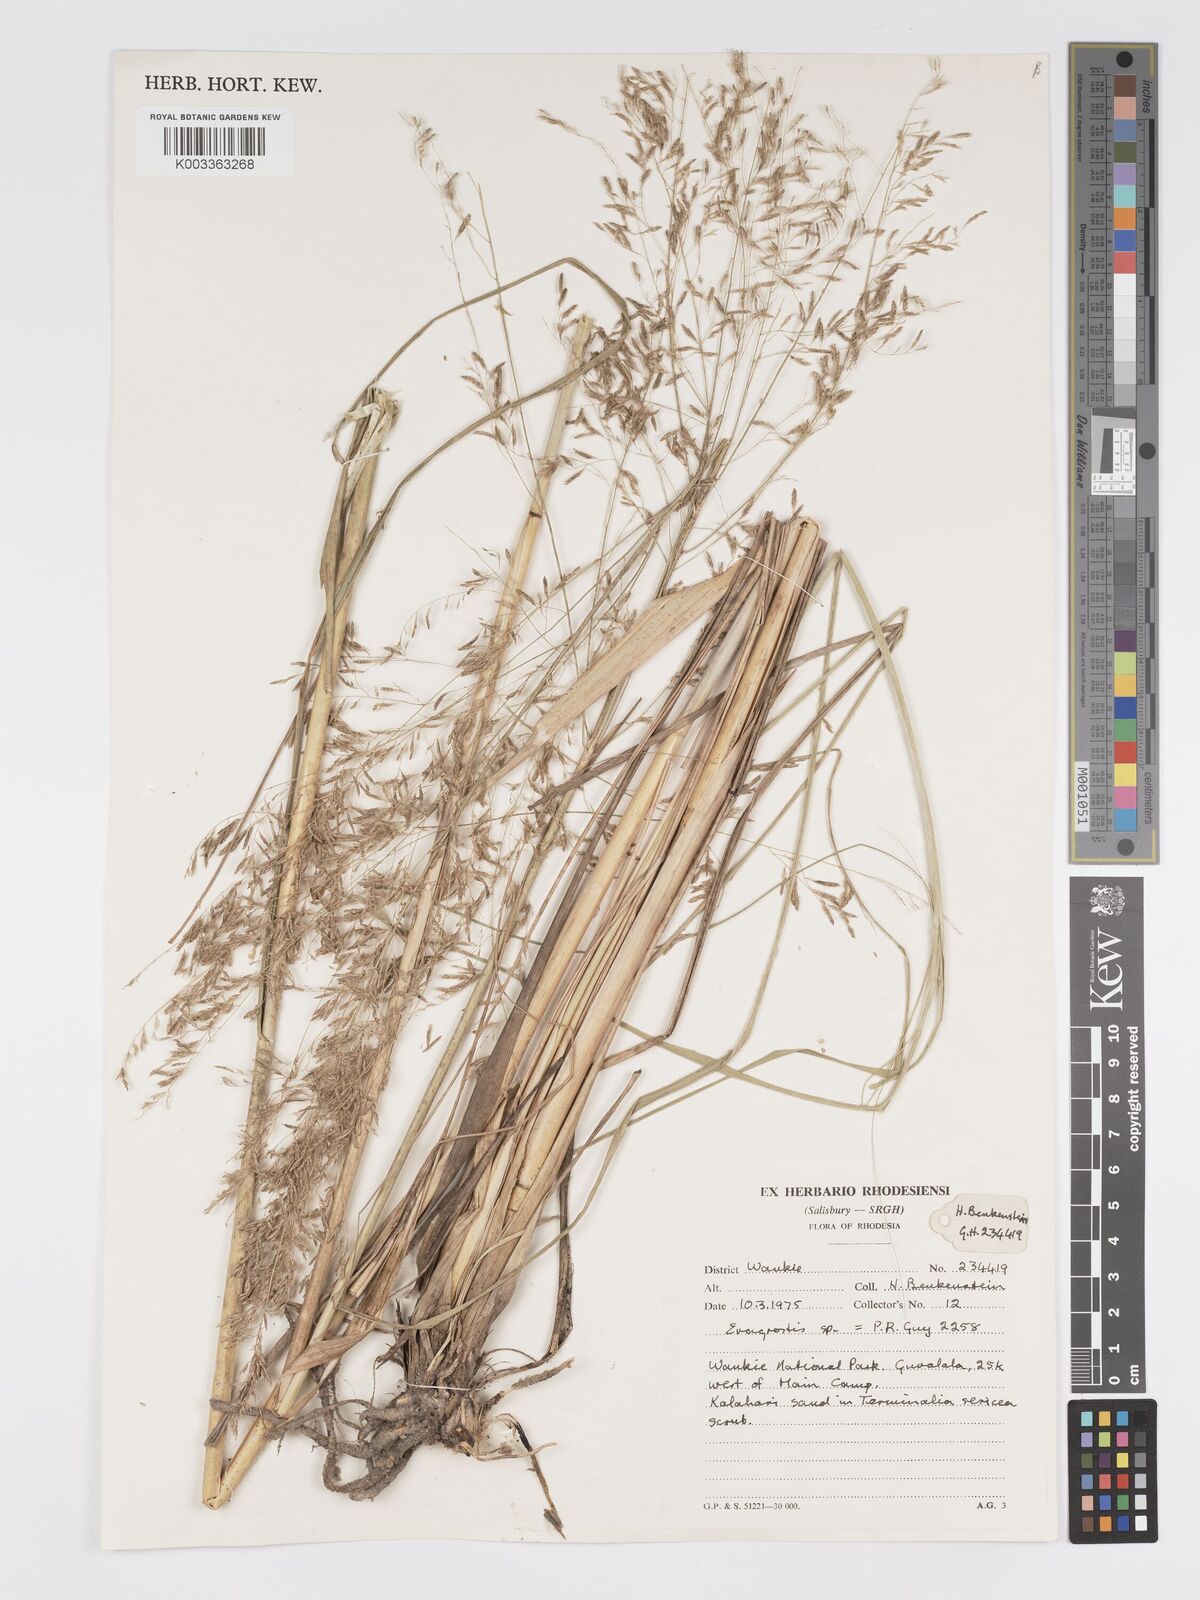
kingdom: Plantae
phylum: Tracheophyta
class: Liliopsida
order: Poales
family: Poaceae
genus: Eragrostis
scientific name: Eragrostis curvula
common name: African love-grass
